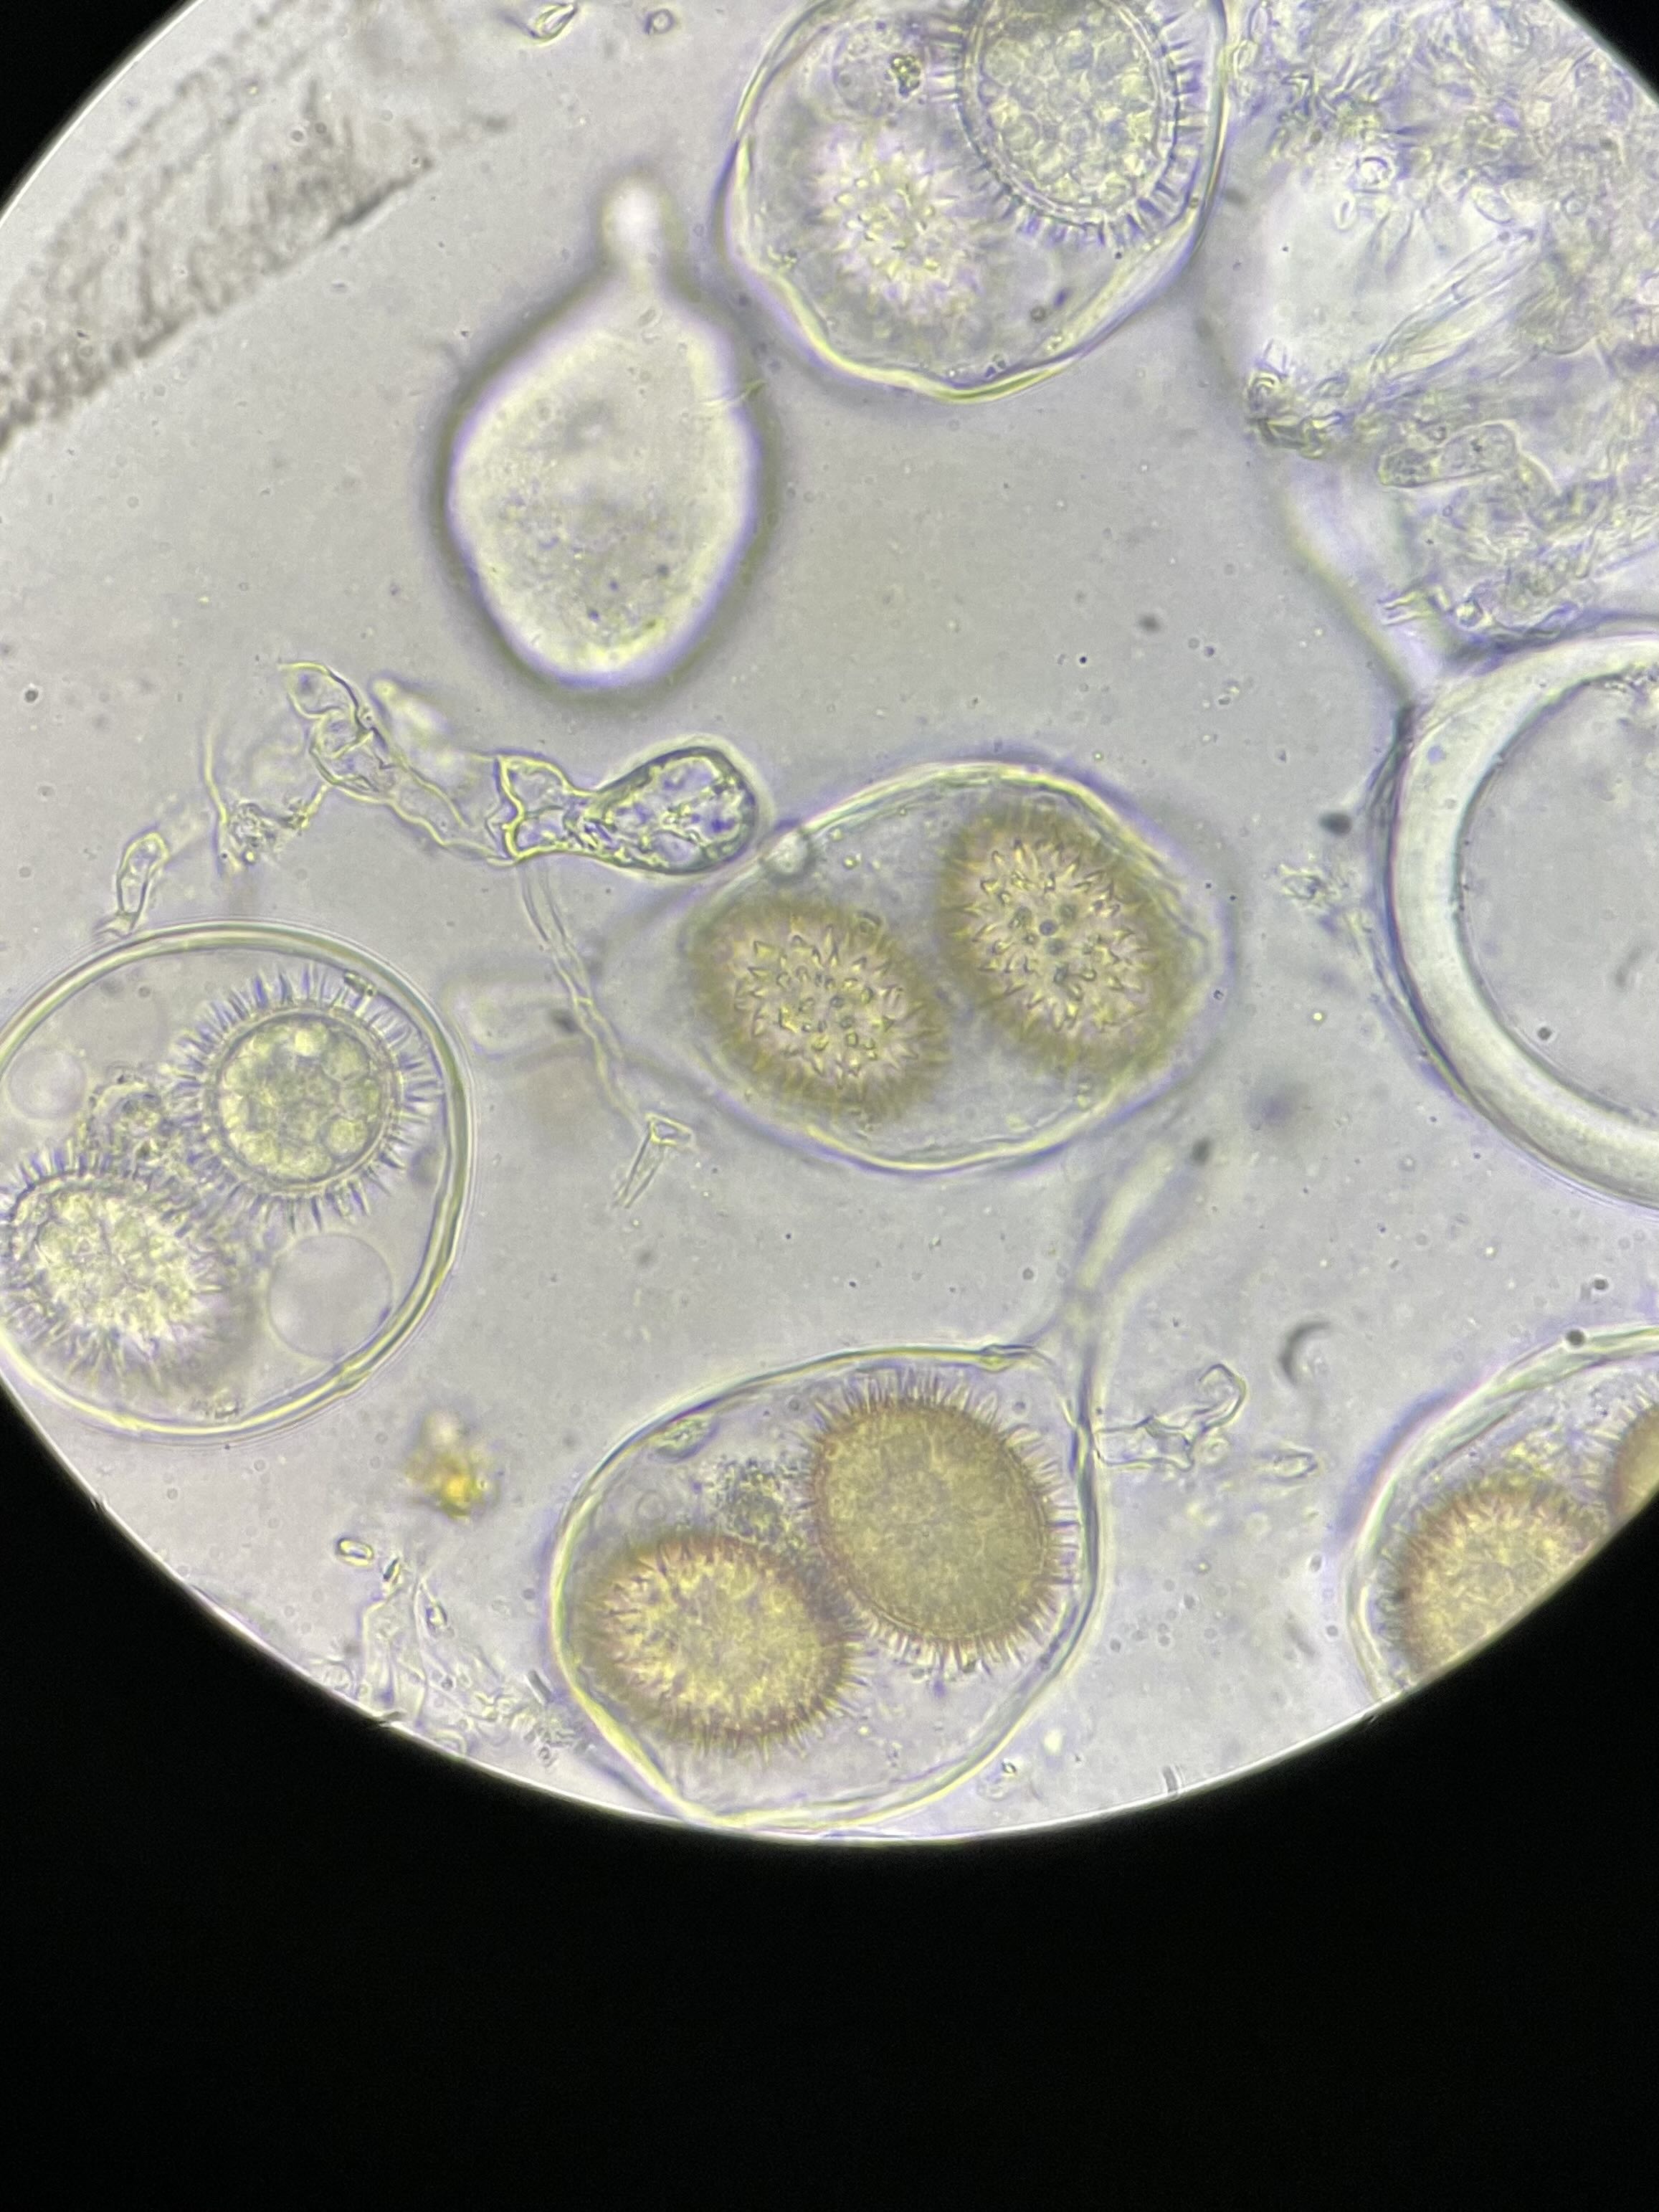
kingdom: Fungi
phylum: Ascomycota
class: Pezizomycetes
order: Pezizales
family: Tuberaceae
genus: Tuber
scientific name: Tuber rufum
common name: rødbrun trøffel
